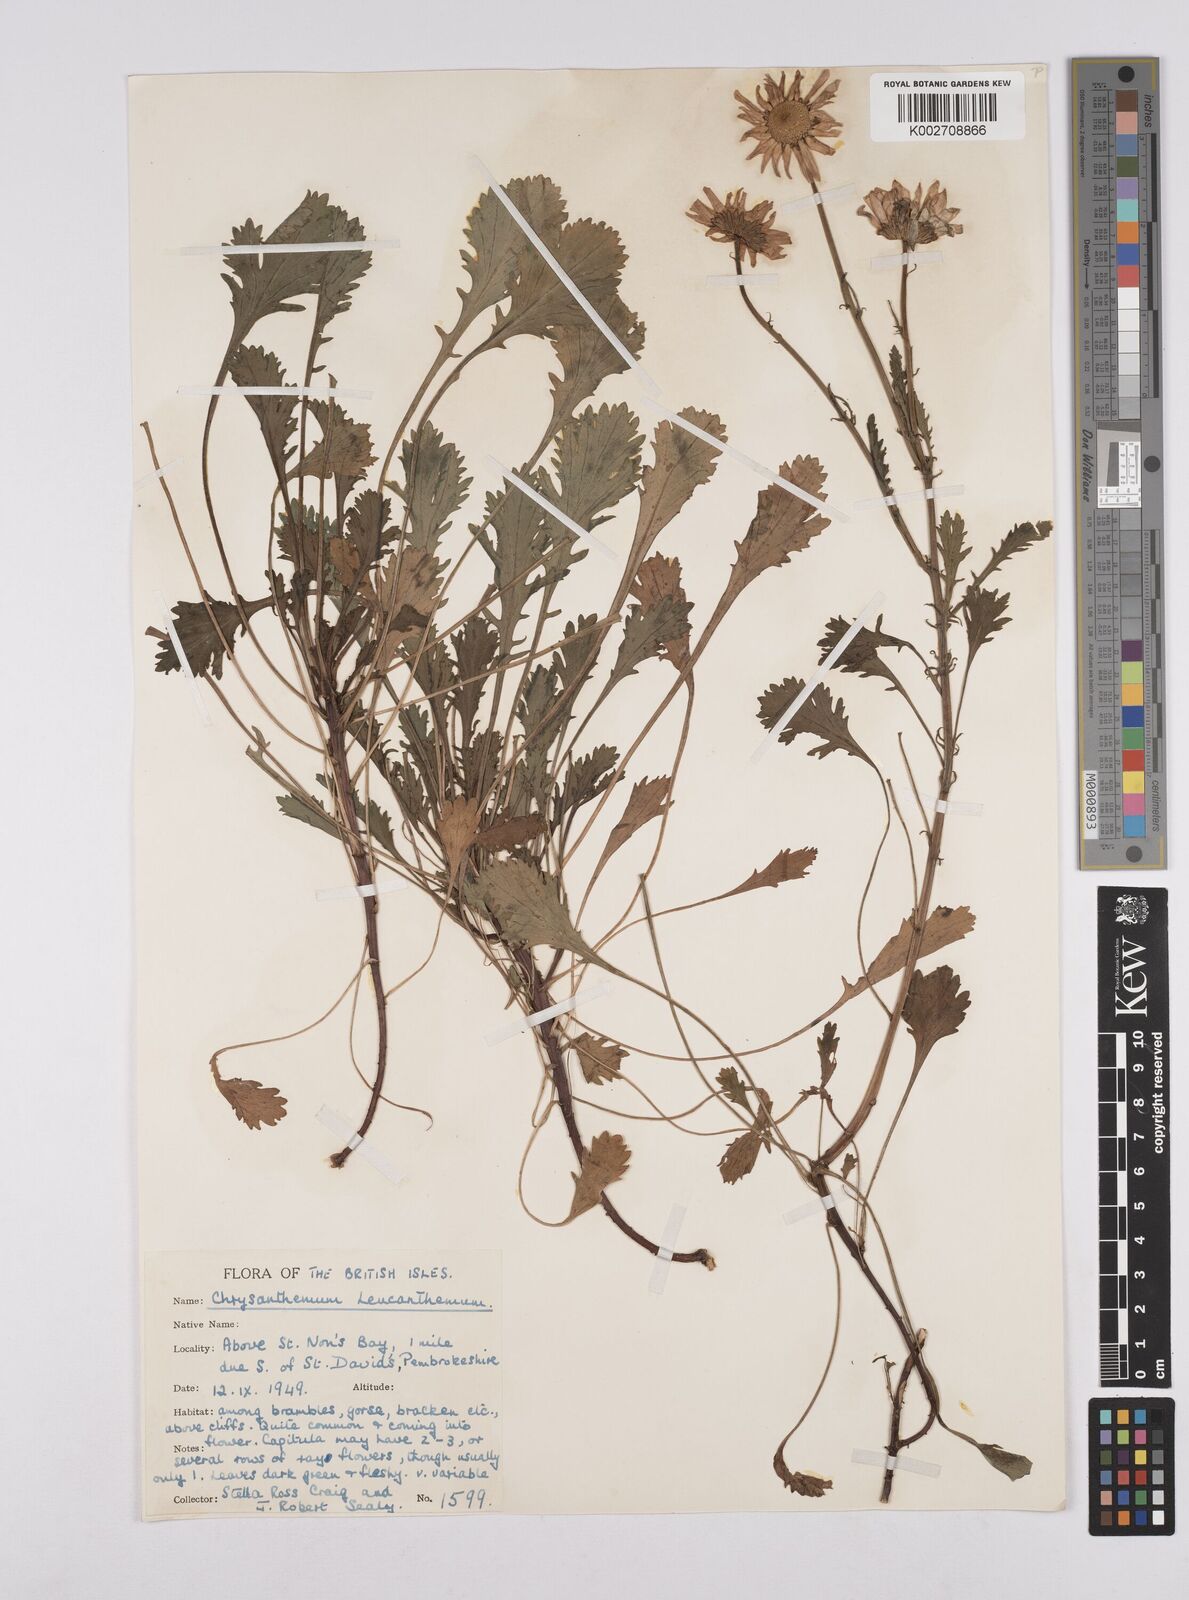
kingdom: Plantae
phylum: Tracheophyta
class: Magnoliopsida
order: Asterales
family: Asteraceae
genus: Leucanthemum
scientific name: Leucanthemum
